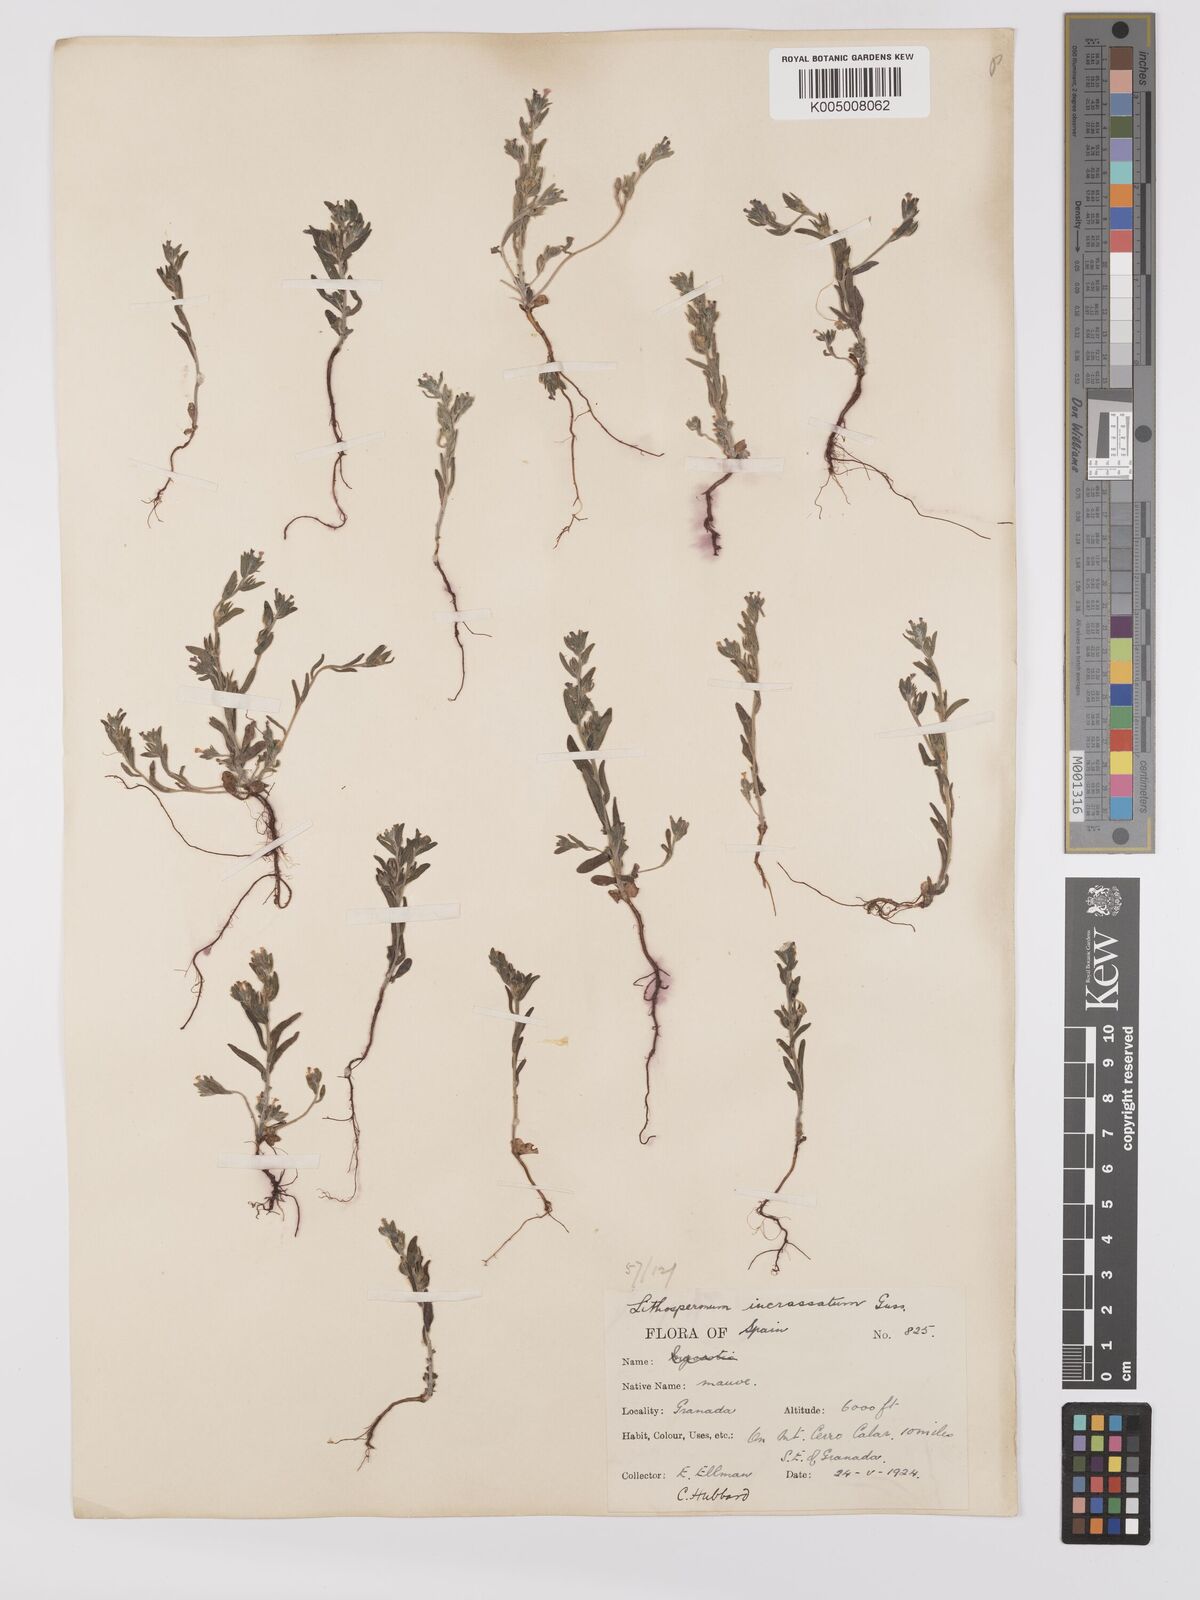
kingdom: Plantae
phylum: Tracheophyta
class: Magnoliopsida
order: Boraginales
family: Boraginaceae
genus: Buglossoides
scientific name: Buglossoides incrassata
